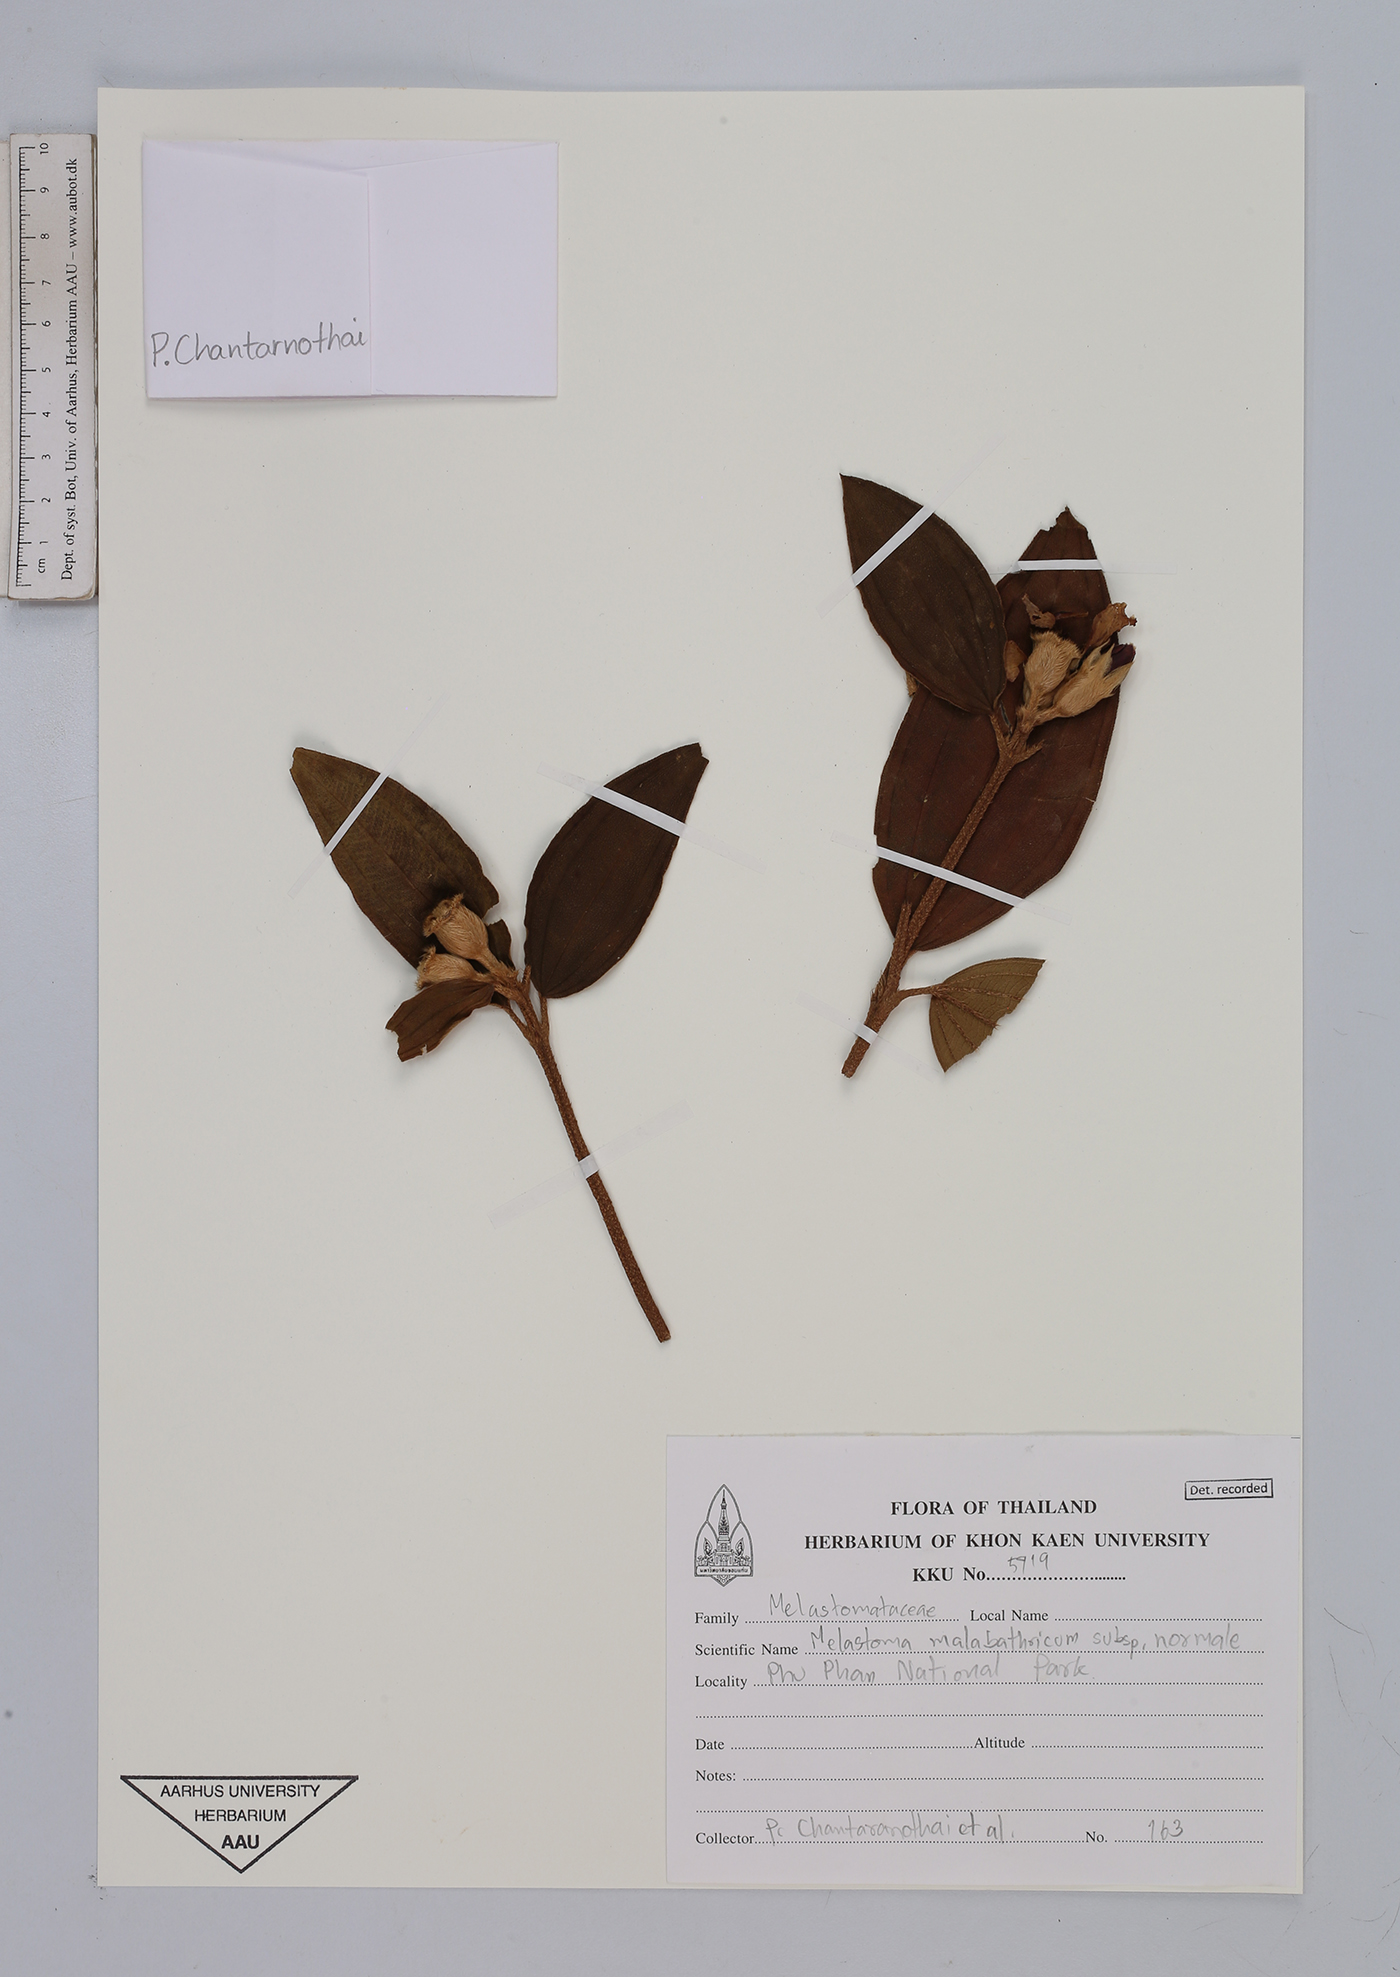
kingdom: Plantae
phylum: Tracheophyta
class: Magnoliopsida
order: Myrtales
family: Melastomataceae
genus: Melastoma
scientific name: Melastoma malabathricum
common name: Indian-rhododendron
